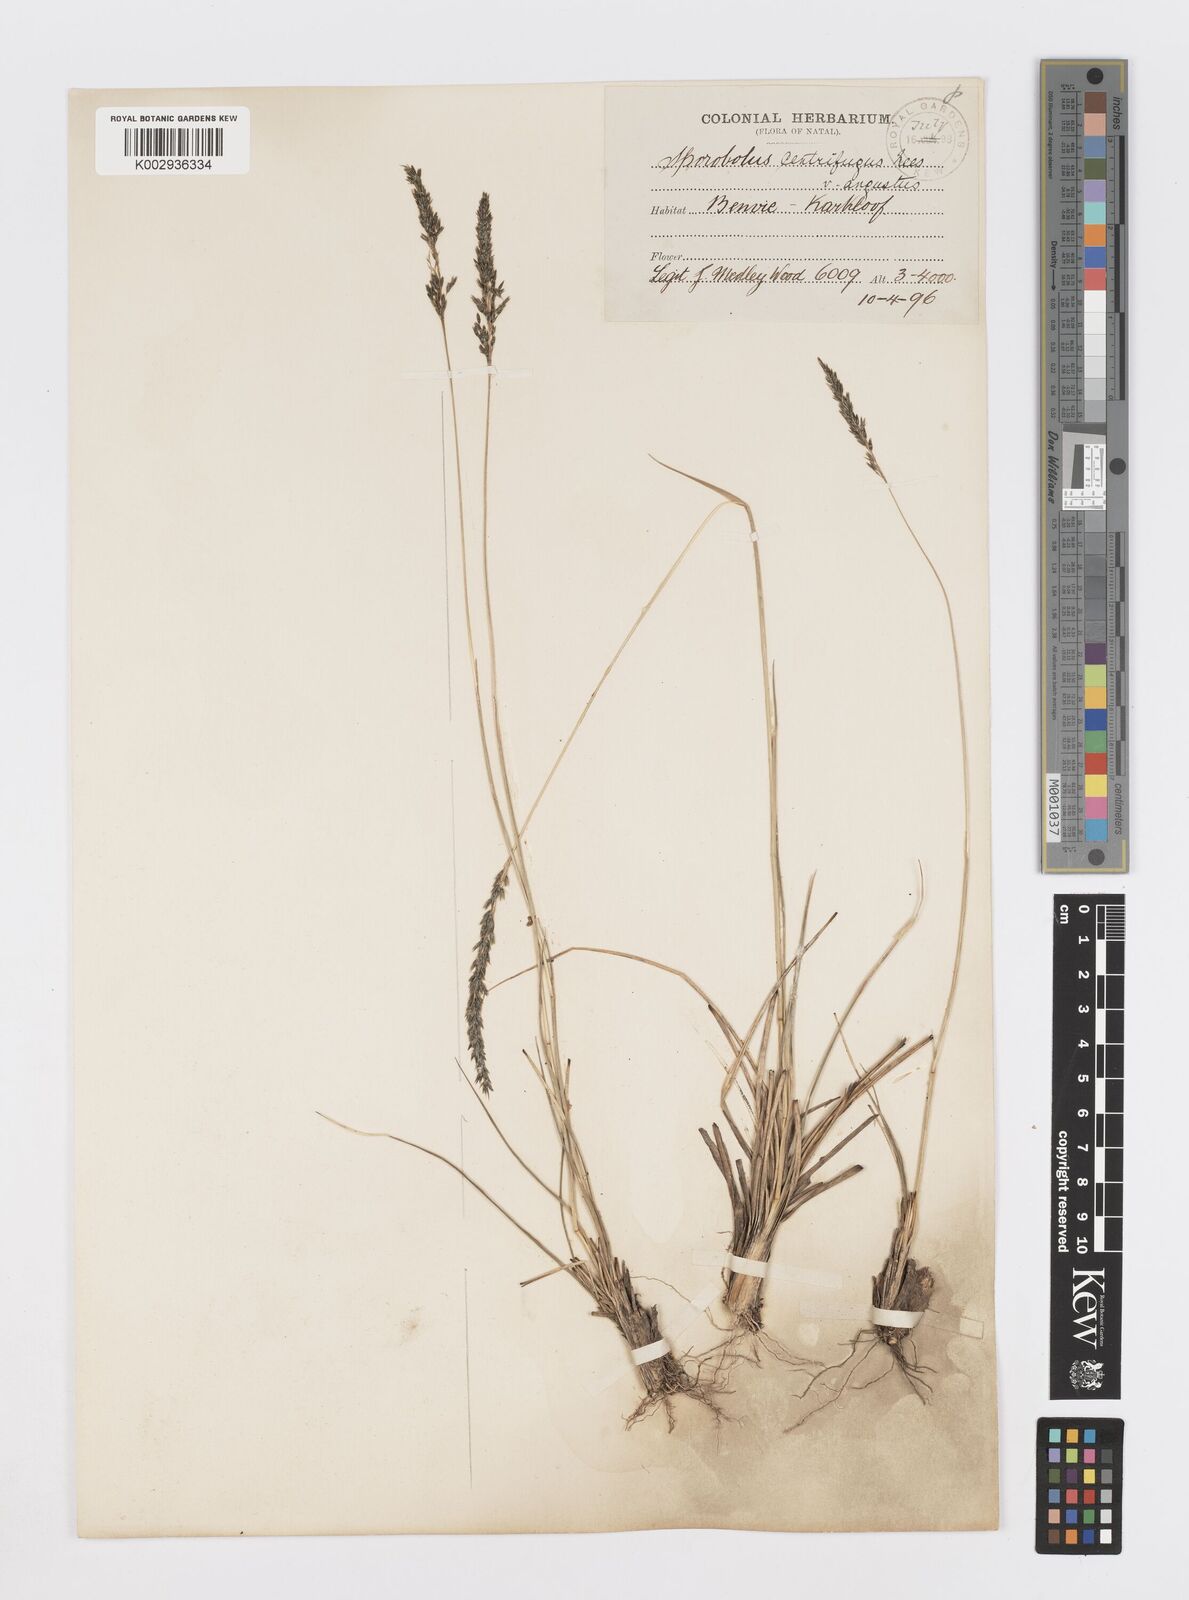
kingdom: Plantae
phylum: Tracheophyta
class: Liliopsida
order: Poales
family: Poaceae
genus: Sporobolus
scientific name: Sporobolus centrifugus
